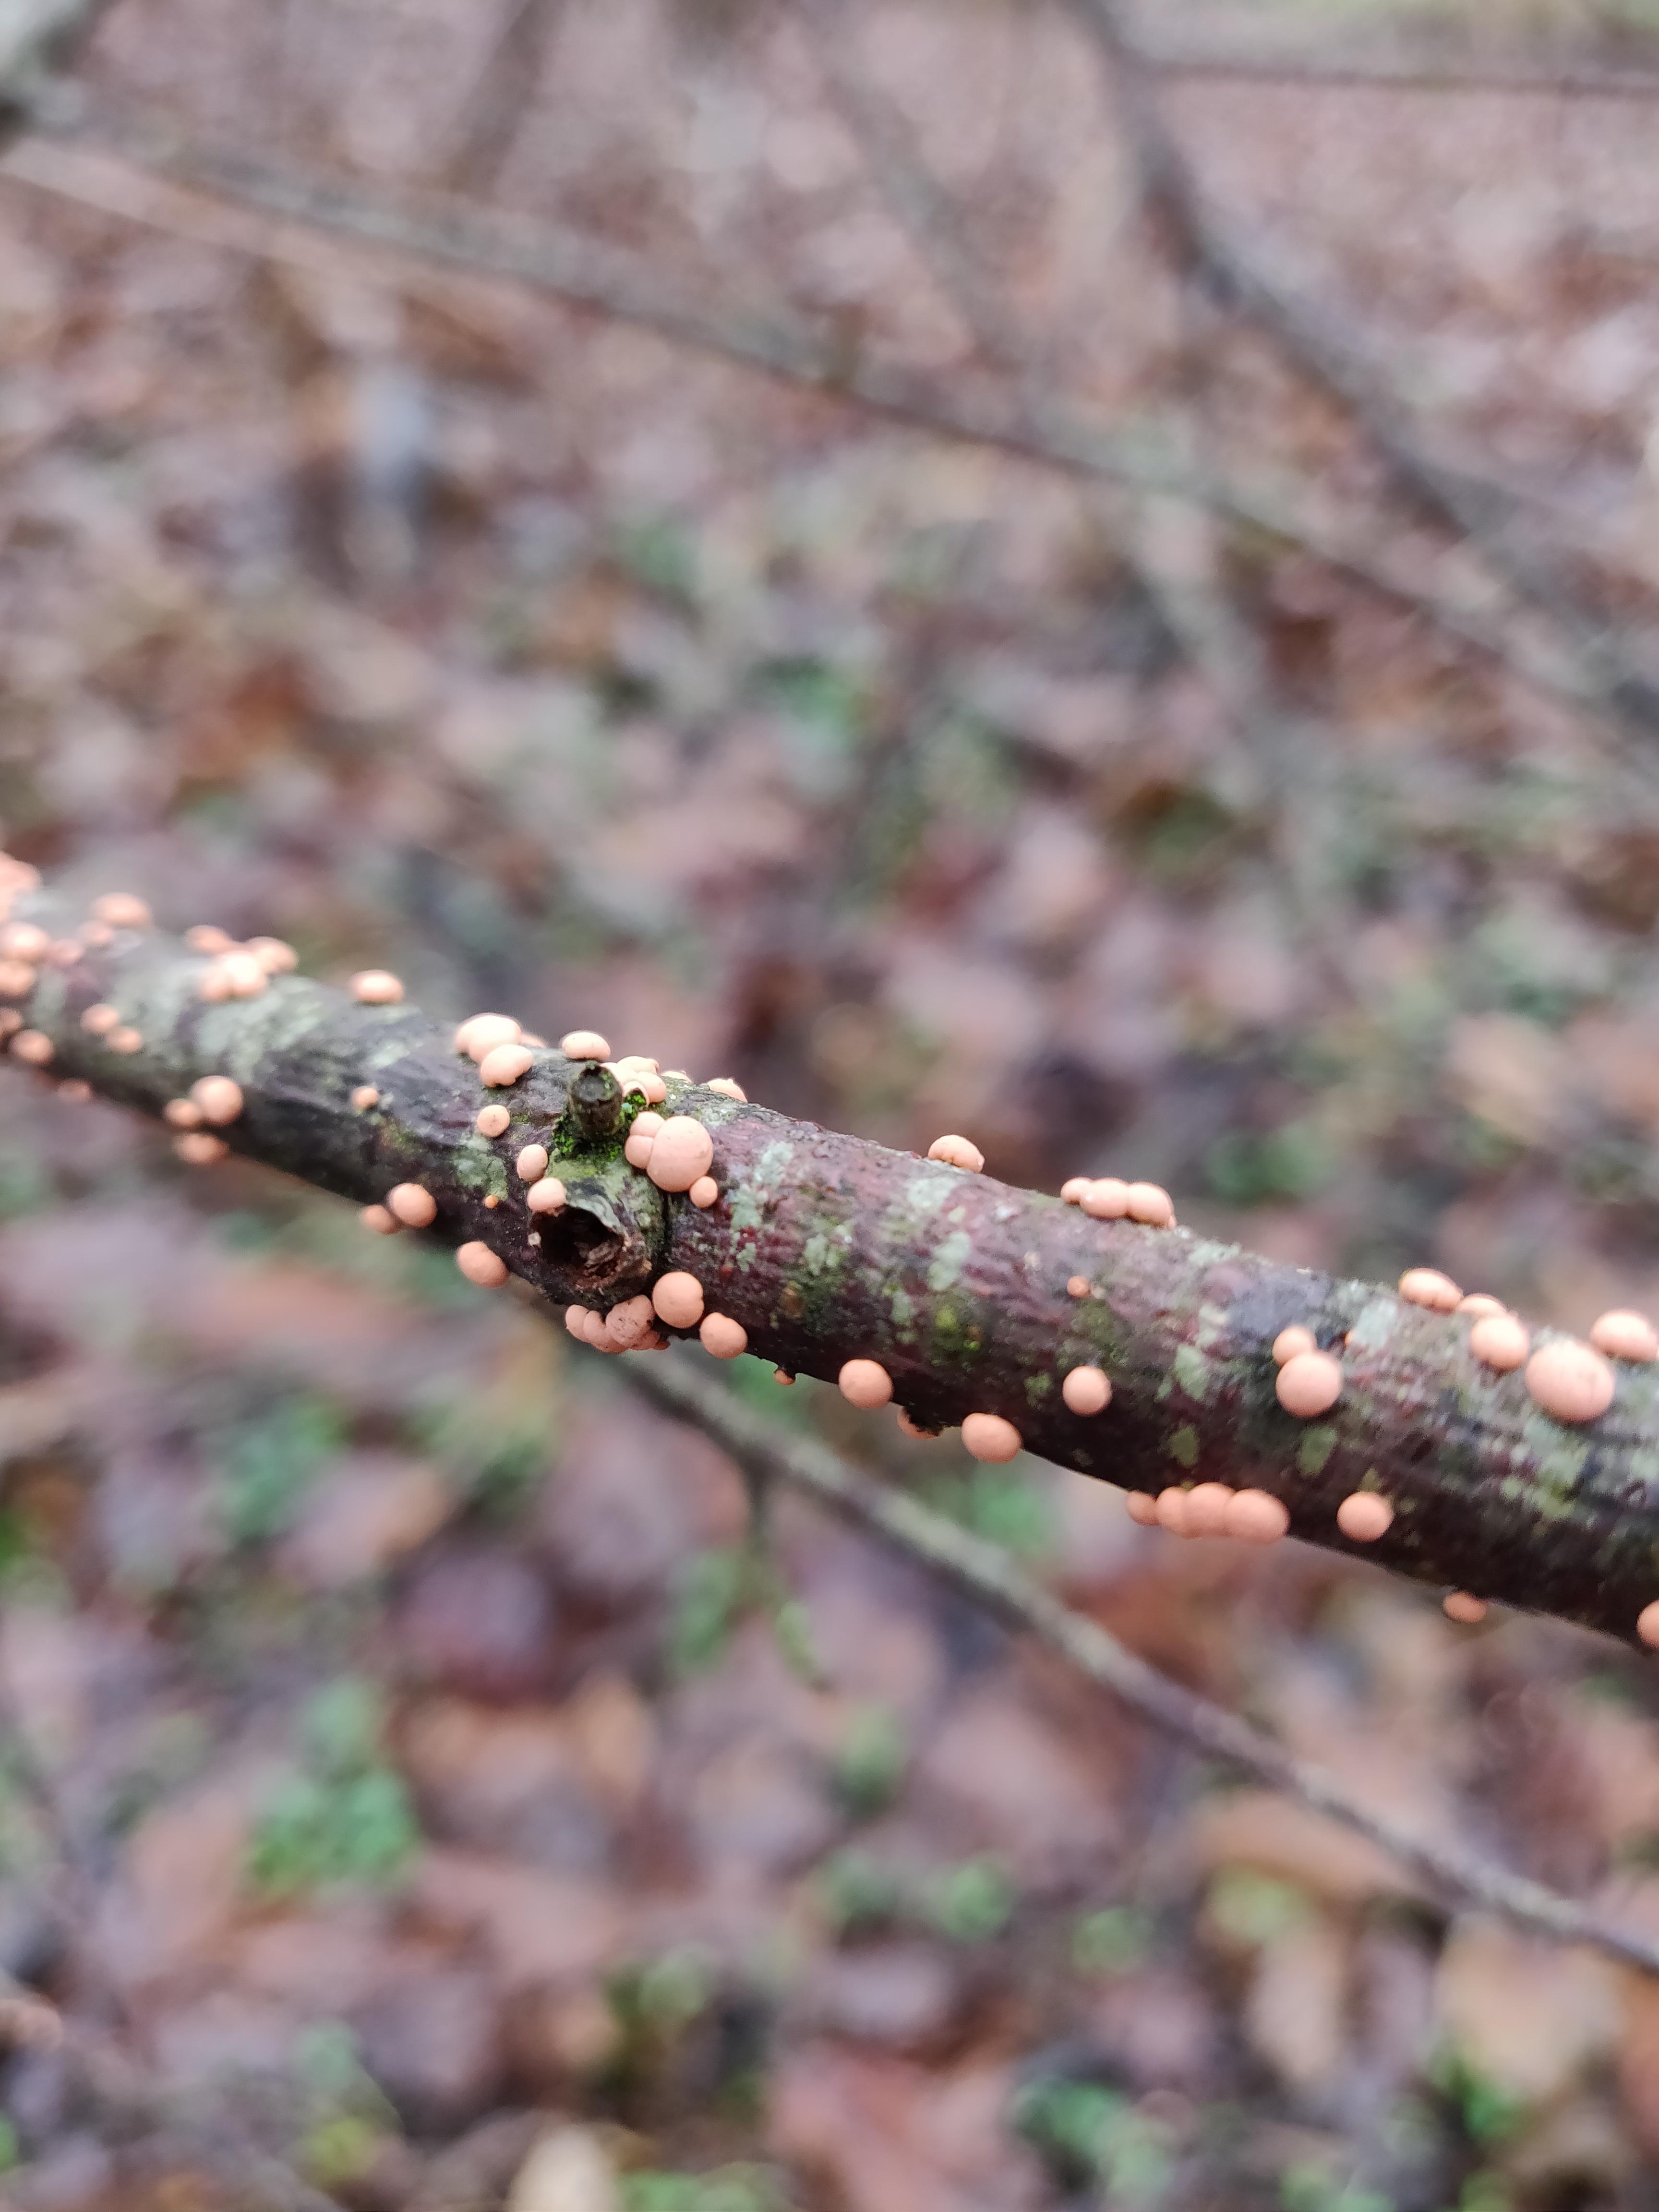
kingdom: Fungi
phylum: Ascomycota
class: Sordariomycetes
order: Hypocreales
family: Nectriaceae
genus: Nectria
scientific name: Nectria cinnabarina
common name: almindelig cinnobersvamp
